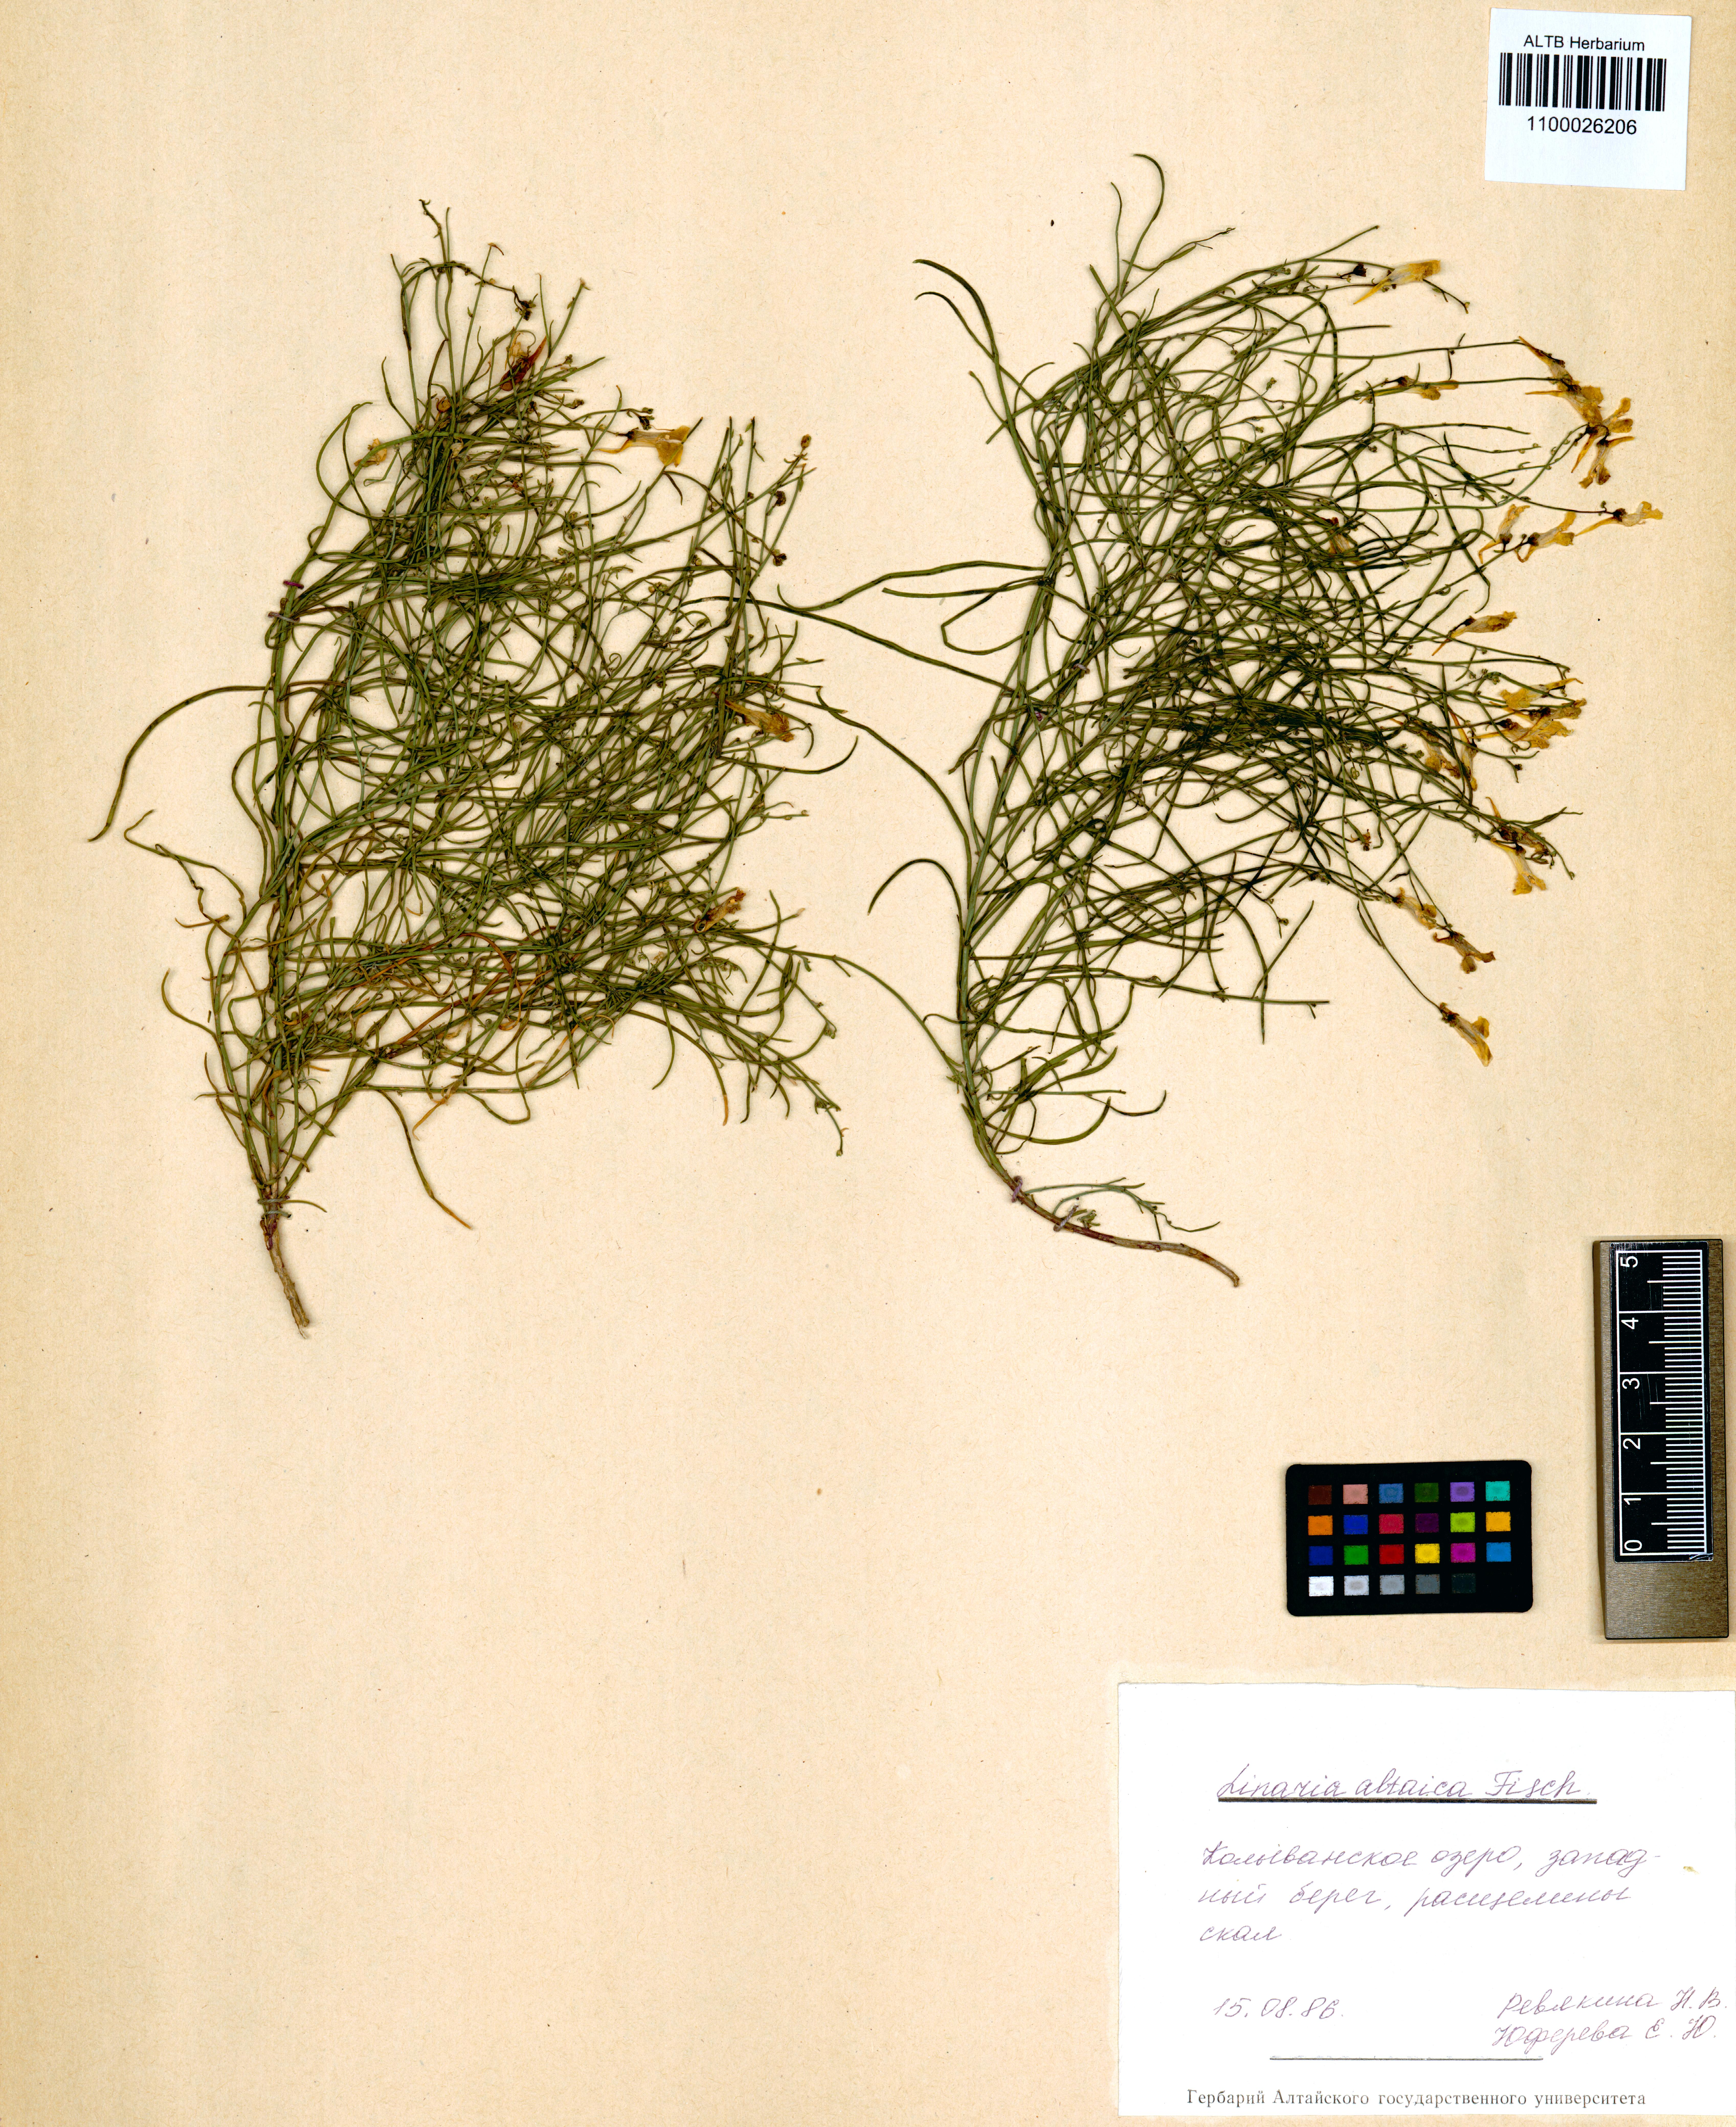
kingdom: Plantae
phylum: Tracheophyta
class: Magnoliopsida
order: Lamiales
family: Plantaginaceae
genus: Linaria
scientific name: Linaria altaica
